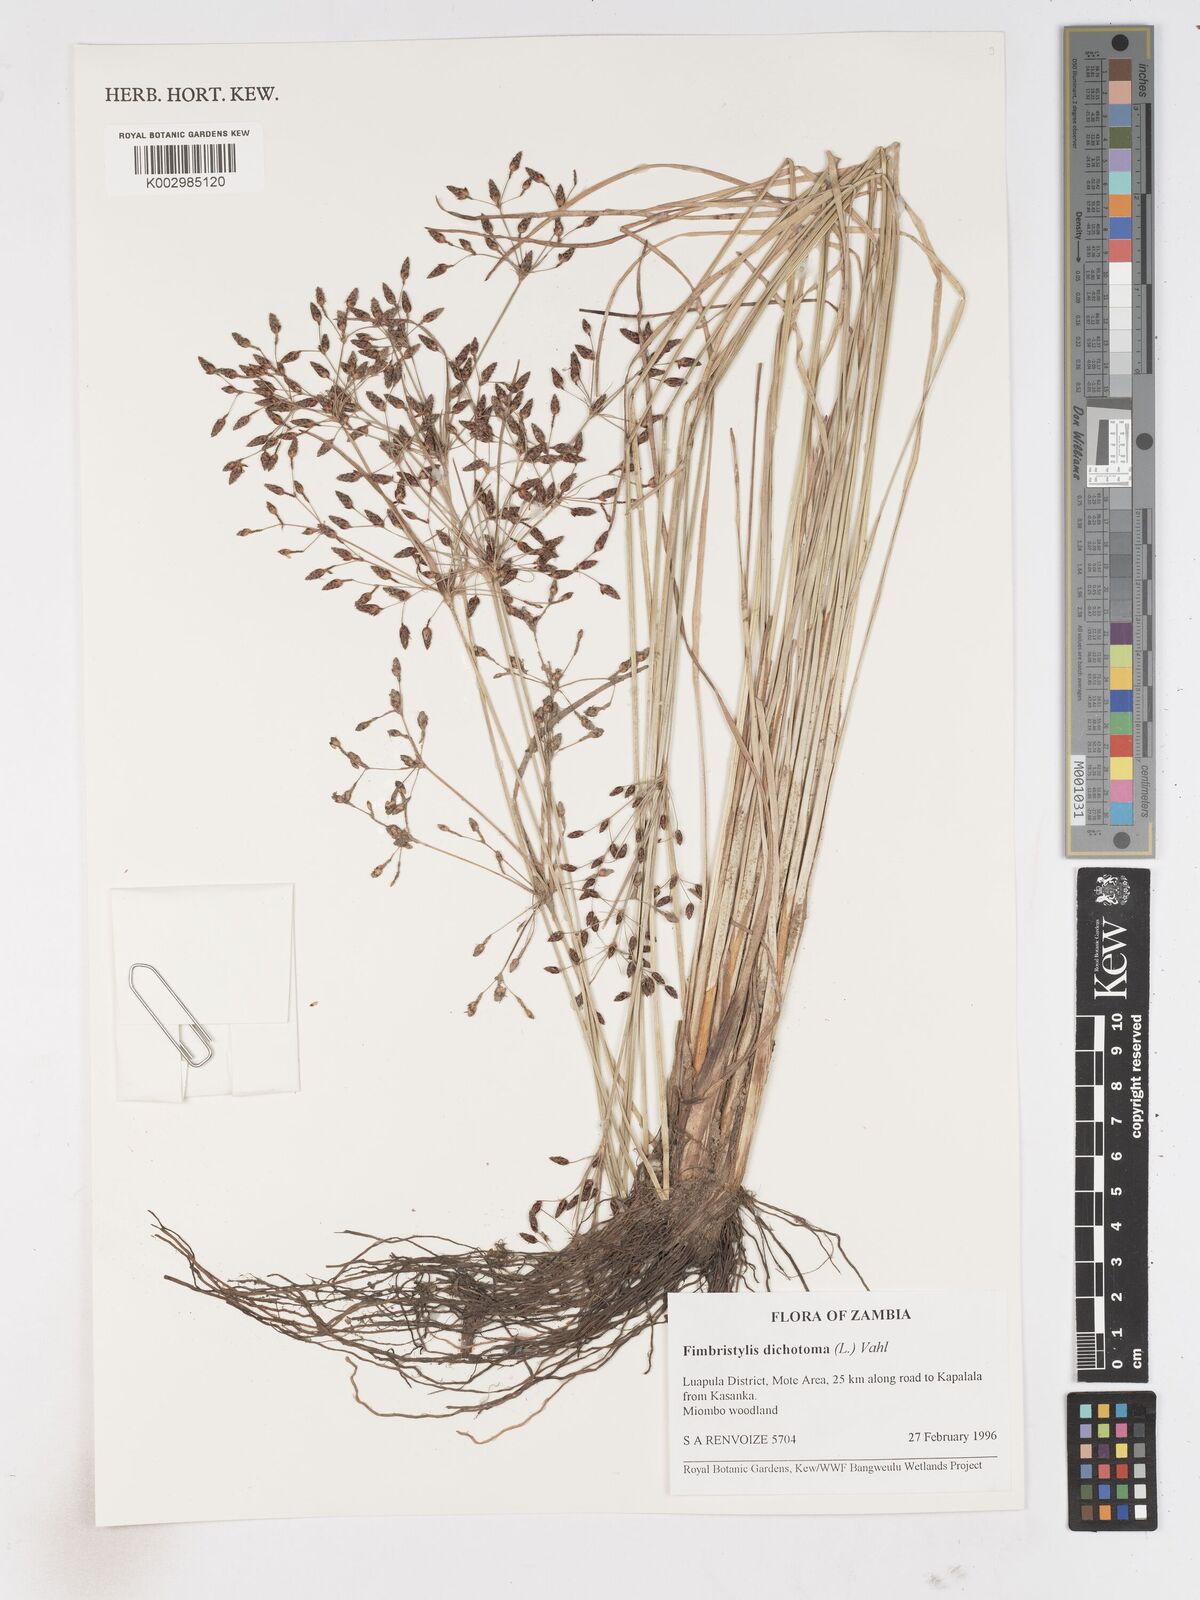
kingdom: Plantae
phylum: Tracheophyta
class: Liliopsida
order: Poales
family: Cyperaceae
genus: Fimbristylis
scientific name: Fimbristylis dichotoma
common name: Forked fimbry
